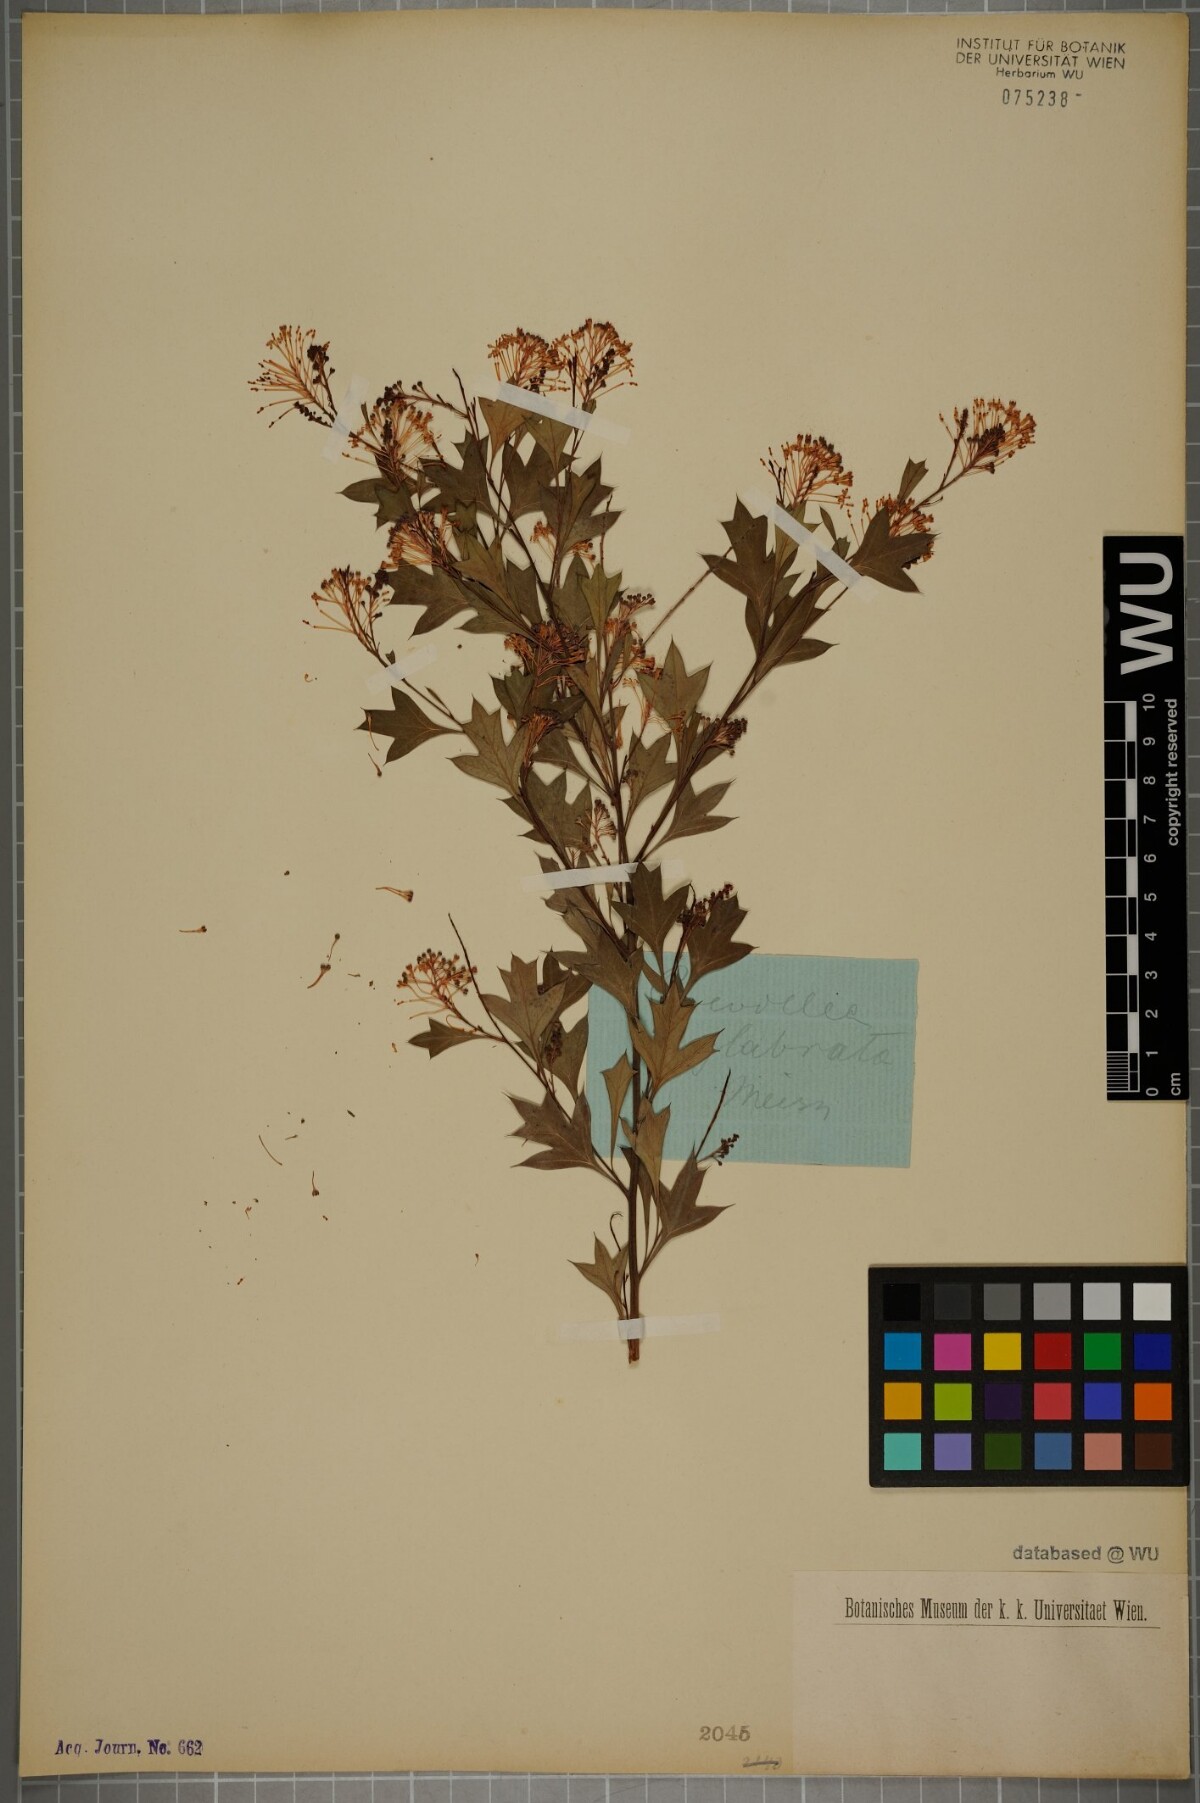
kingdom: Plantae
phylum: Tracheophyta
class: Magnoliopsida
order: Proteales
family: Proteaceae
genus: Grevillea
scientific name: Grevillea manglesii
